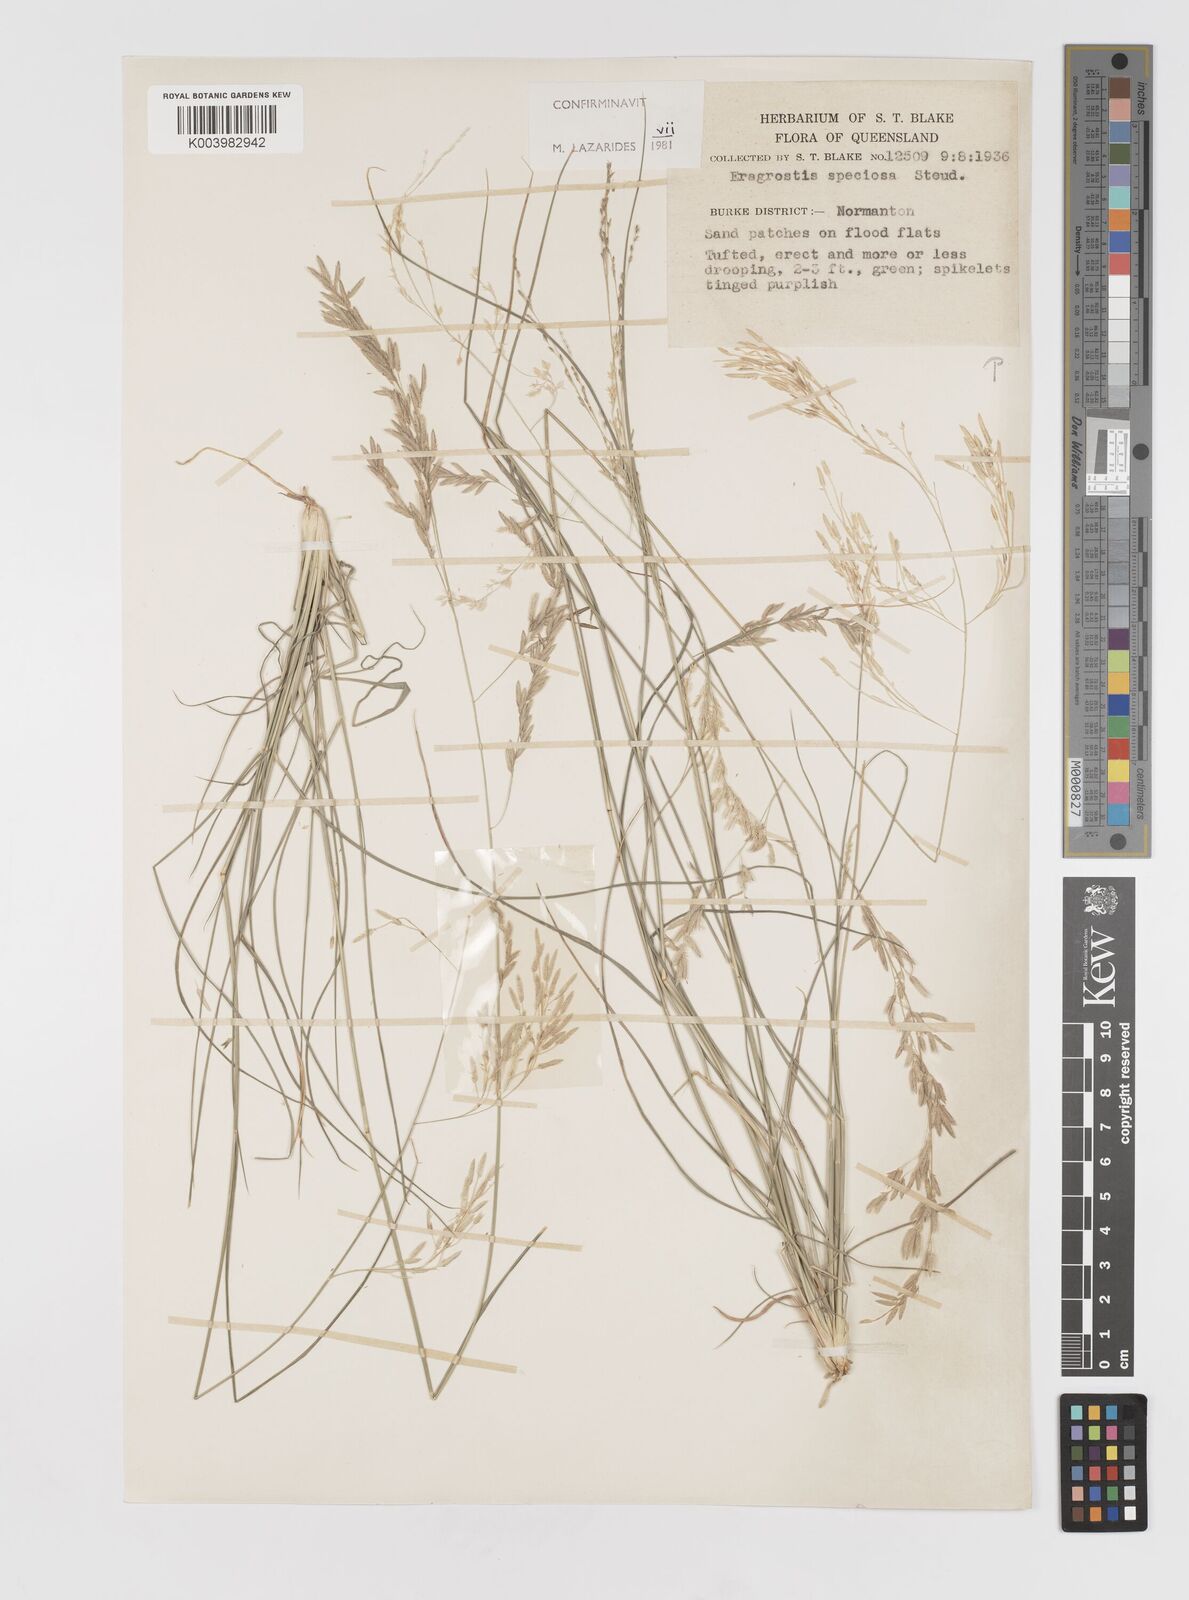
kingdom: Plantae
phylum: Tracheophyta
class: Liliopsida
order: Poales
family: Poaceae
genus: Eragrostis
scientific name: Eragrostis speciosa
